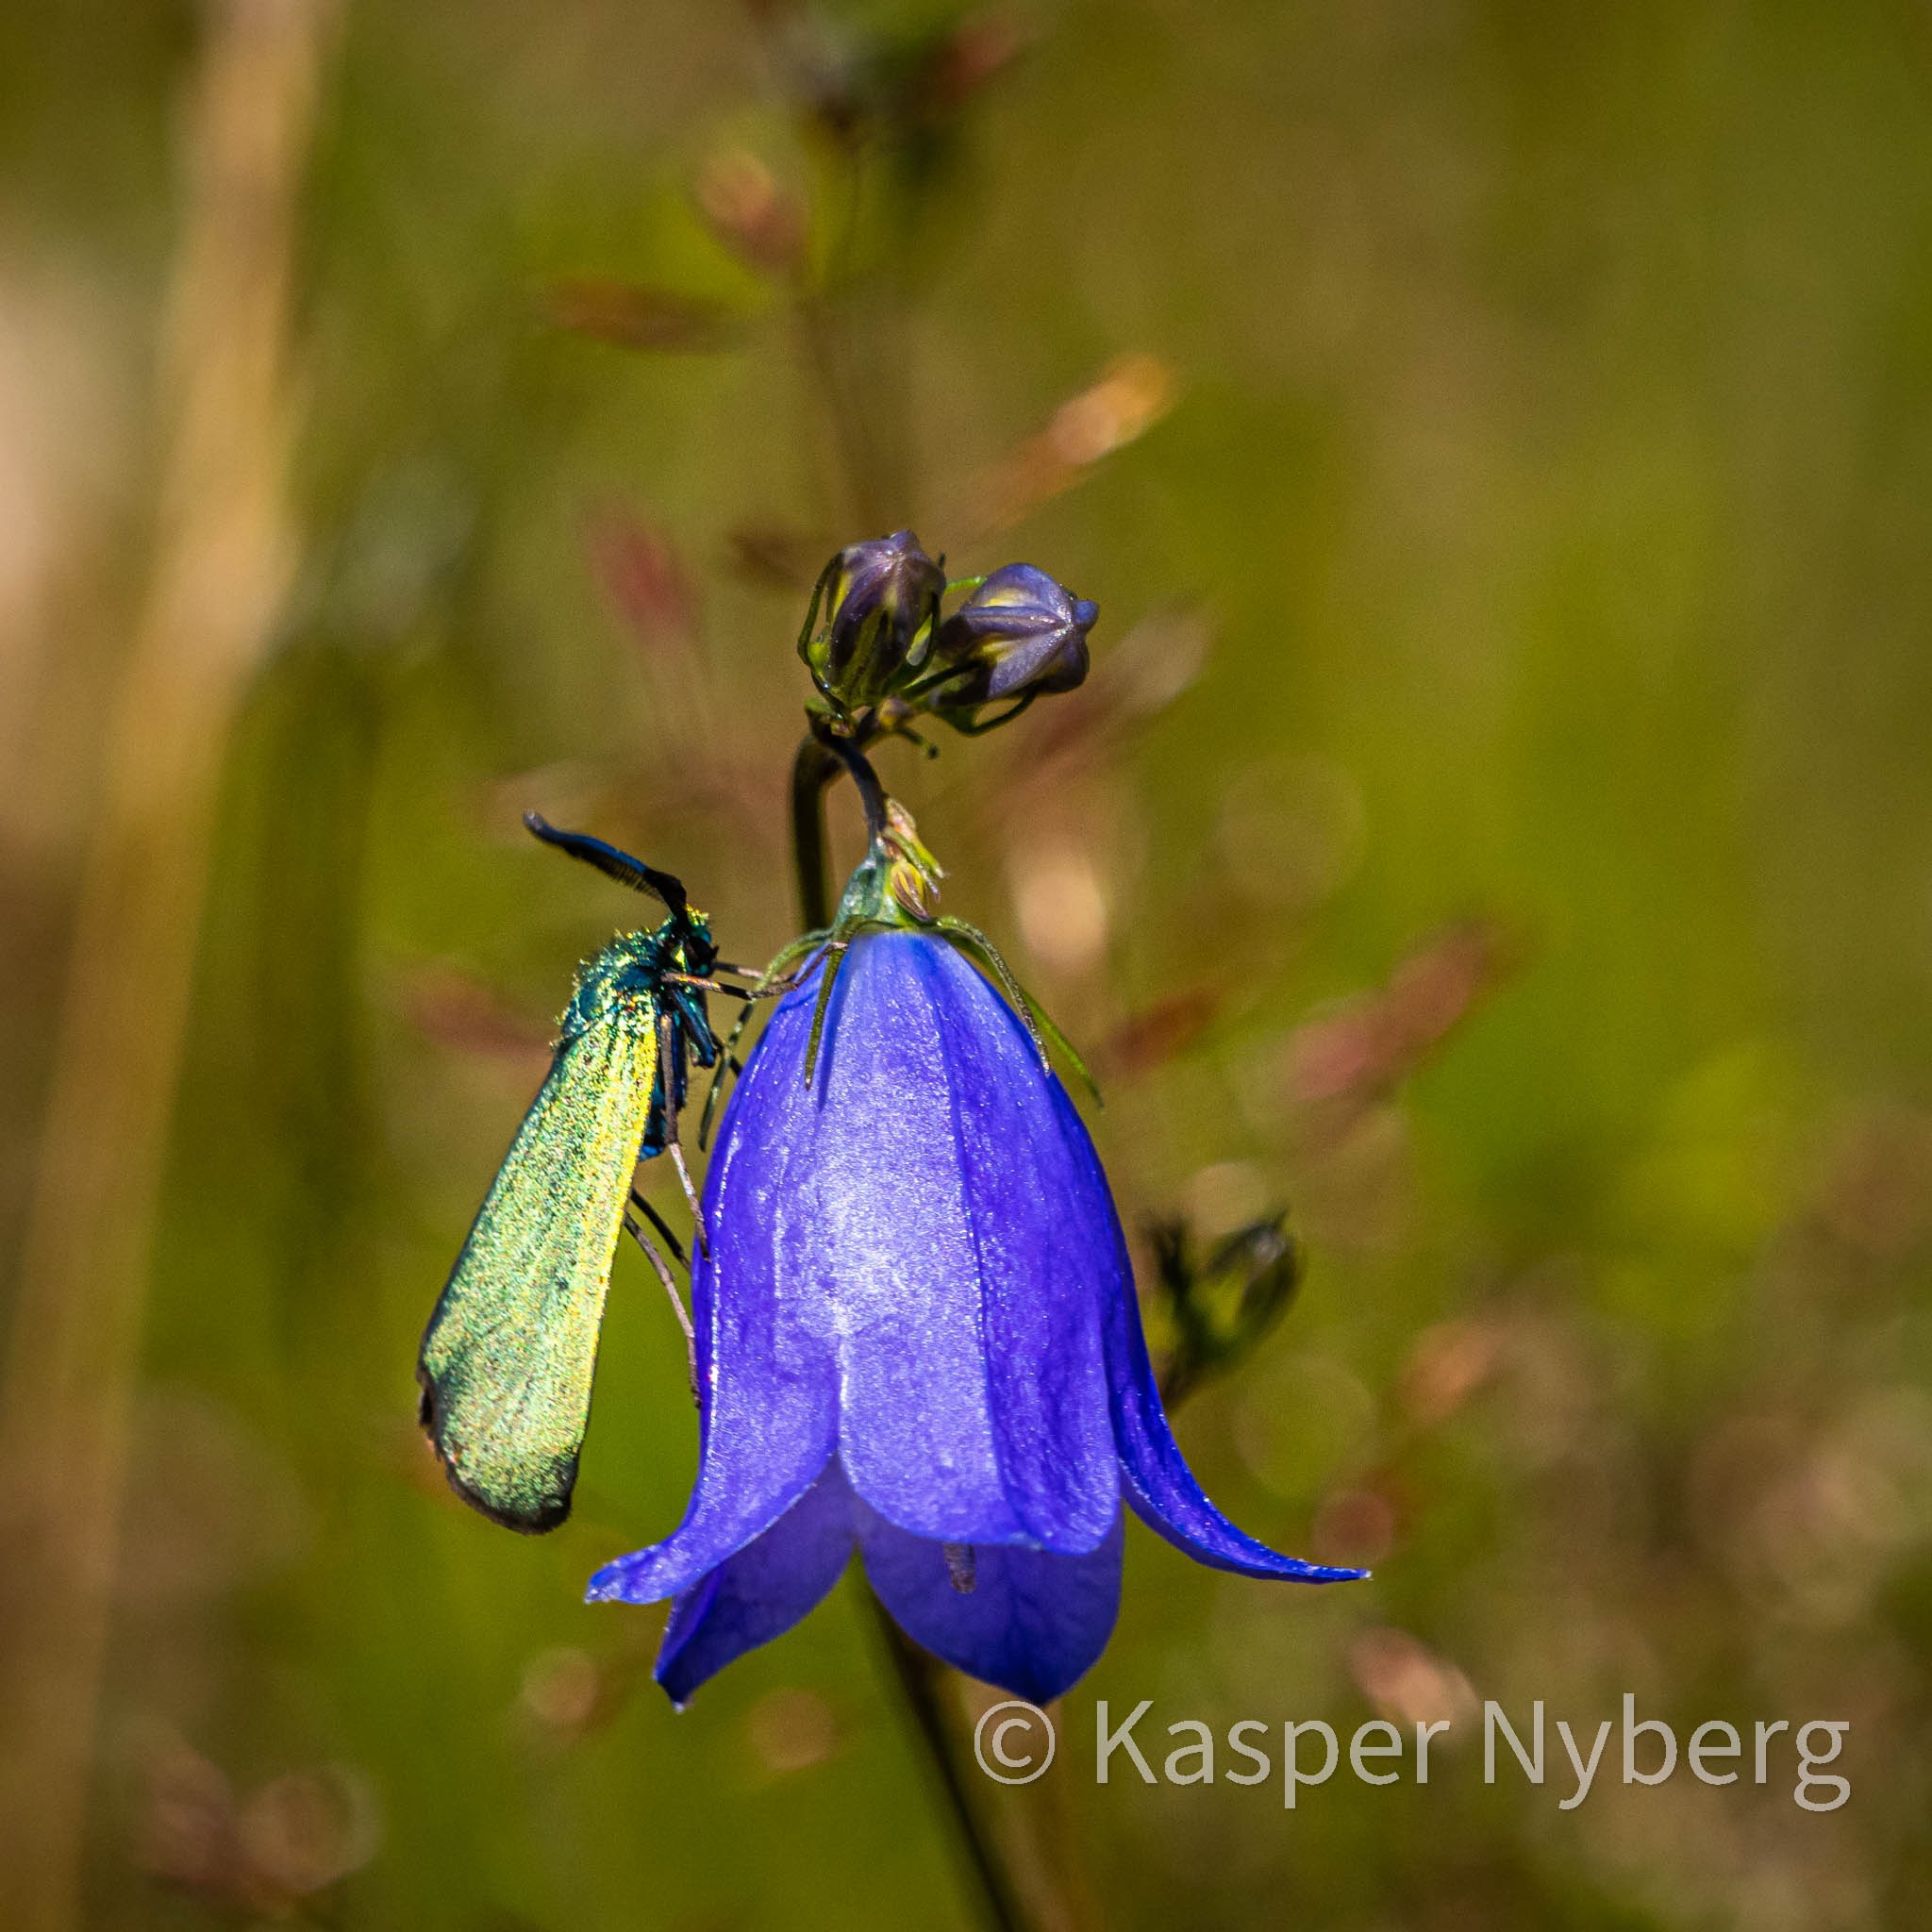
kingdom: Animalia
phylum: Arthropoda
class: Insecta
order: Lepidoptera
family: Zygaenidae
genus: Adscita
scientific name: Adscita statices
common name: Metalvinge
